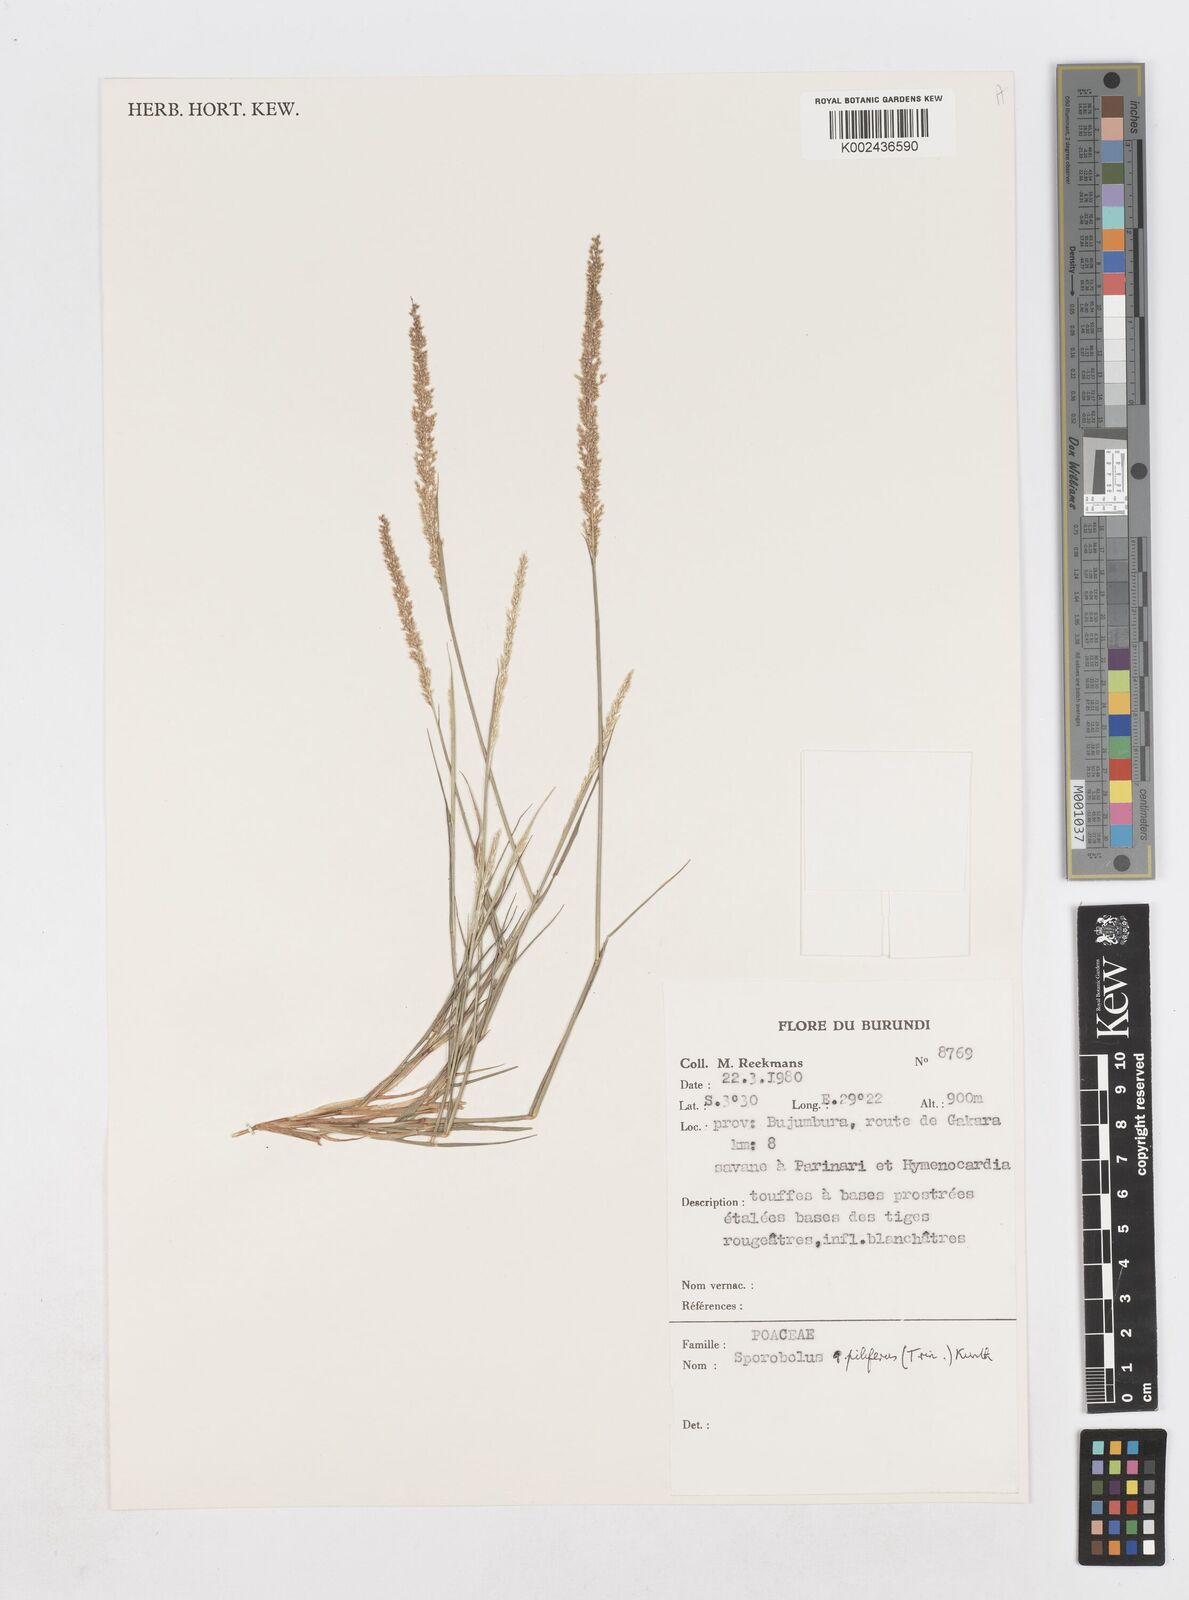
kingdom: Plantae
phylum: Tracheophyta
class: Liliopsida
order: Poales
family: Poaceae
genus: Sporobolus
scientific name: Sporobolus pilifer
